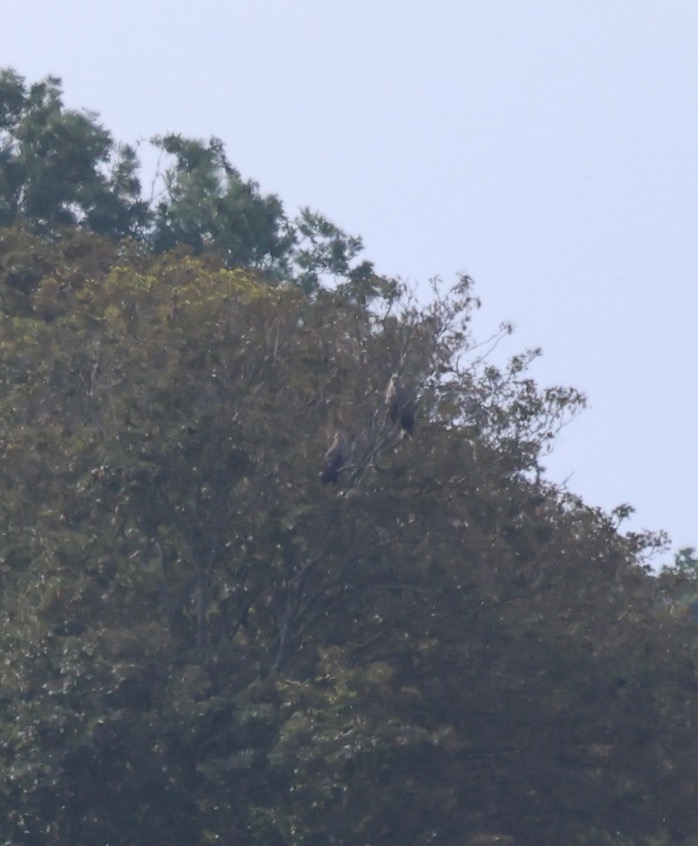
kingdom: Animalia
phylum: Chordata
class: Aves
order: Accipitriformes
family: Accipitridae
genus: Haliaeetus
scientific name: Haliaeetus albicilla
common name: Havørn
